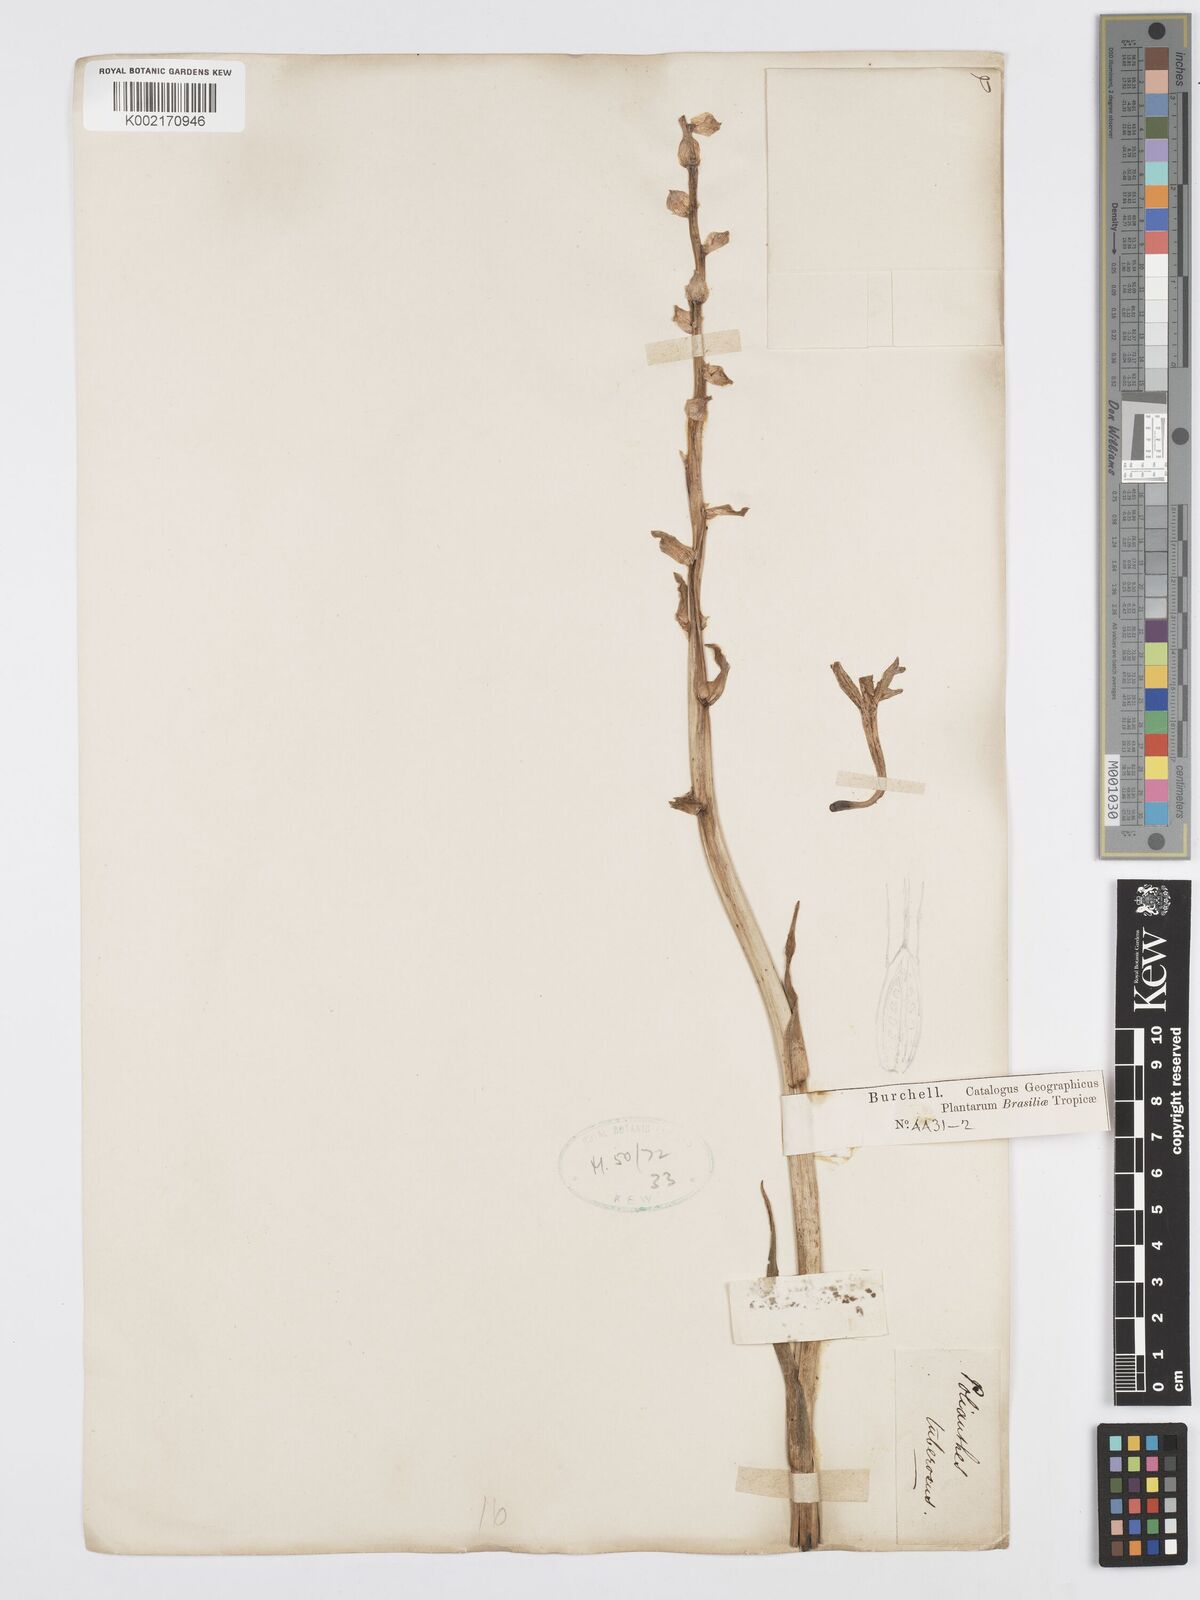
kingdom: Plantae
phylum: Tracheophyta
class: Liliopsida
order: Asparagales
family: Asparagaceae
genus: Agave
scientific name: Agave amica
